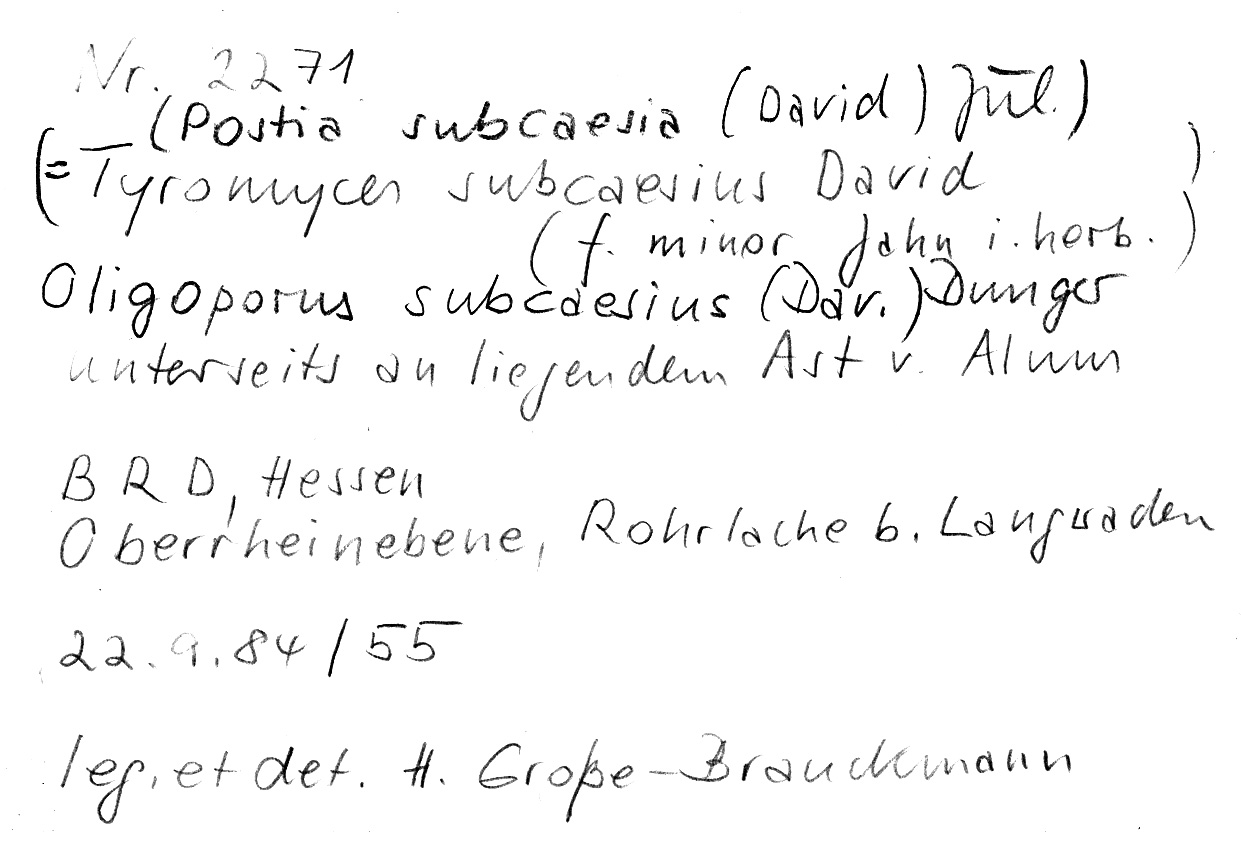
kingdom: Fungi
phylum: Basidiomycota
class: Agaricomycetes
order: Polyporales
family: Polyporaceae
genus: Cyanosporus
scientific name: Cyanosporus subcaesius
